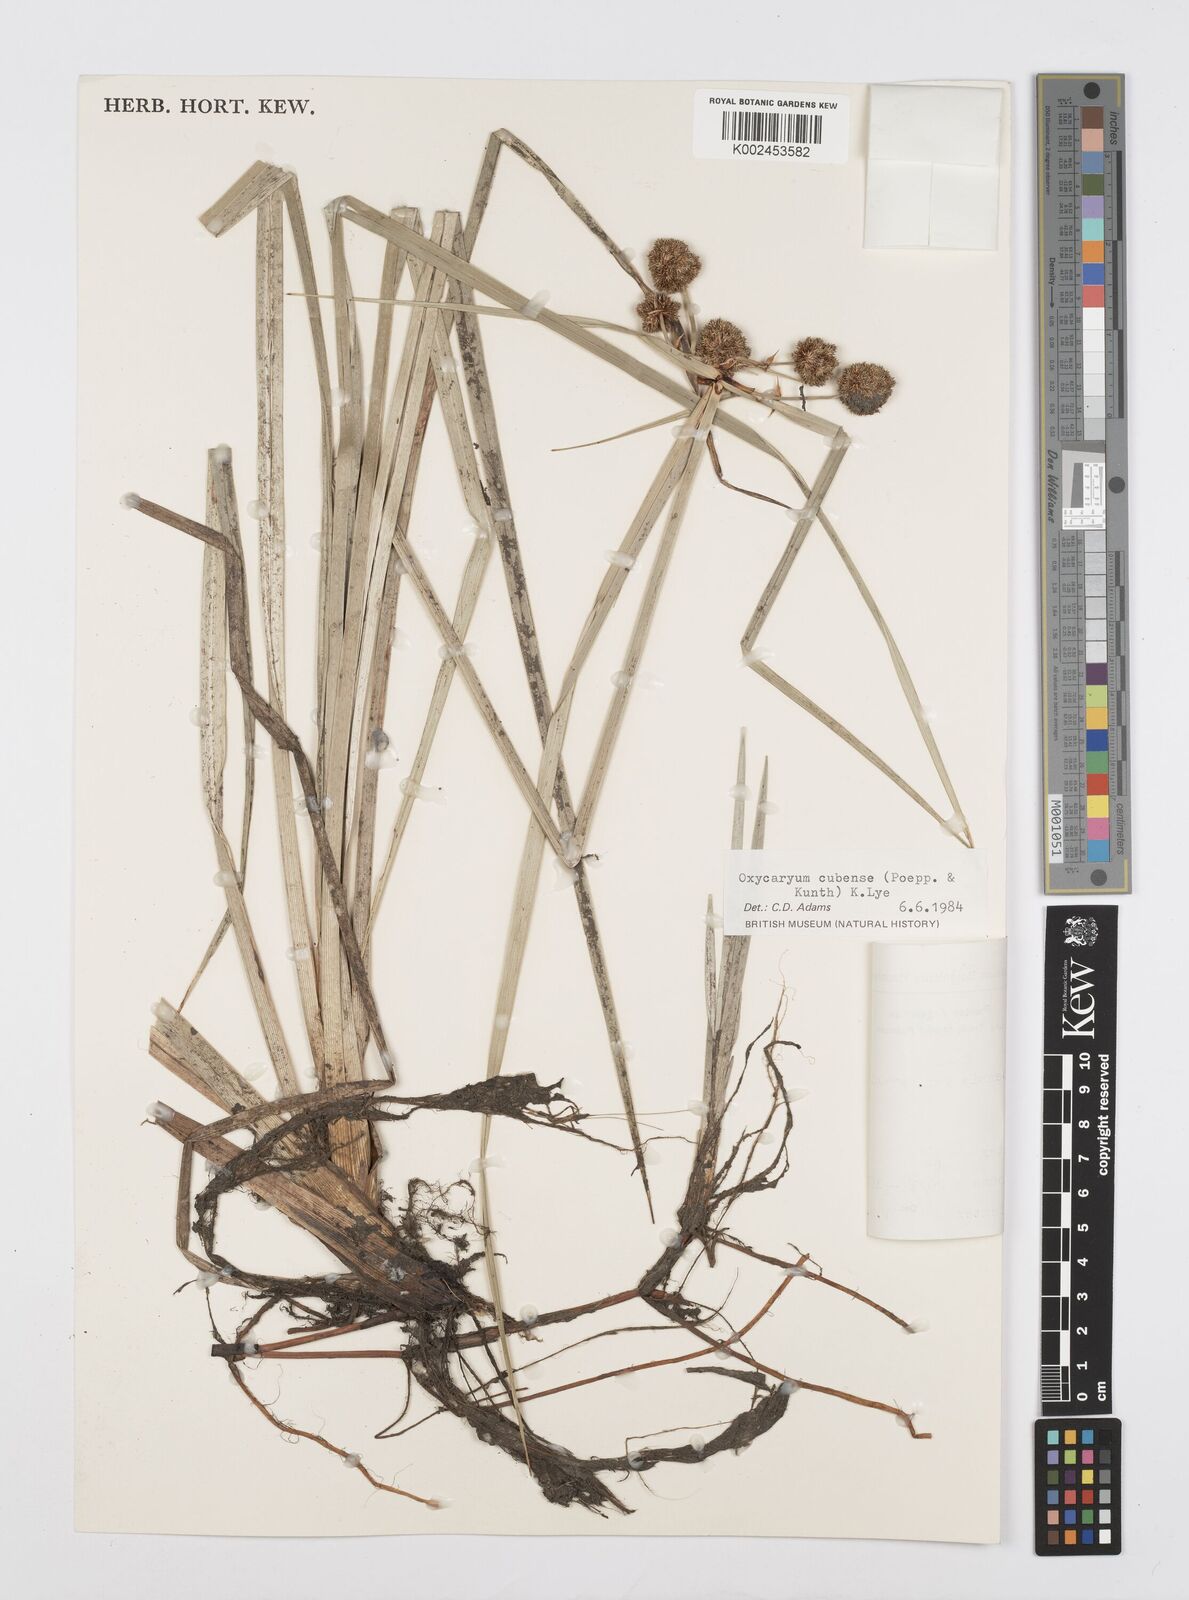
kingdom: Plantae
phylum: Tracheophyta
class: Liliopsida
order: Poales
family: Cyperaceae
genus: Cyperus
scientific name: Cyperus elegans
